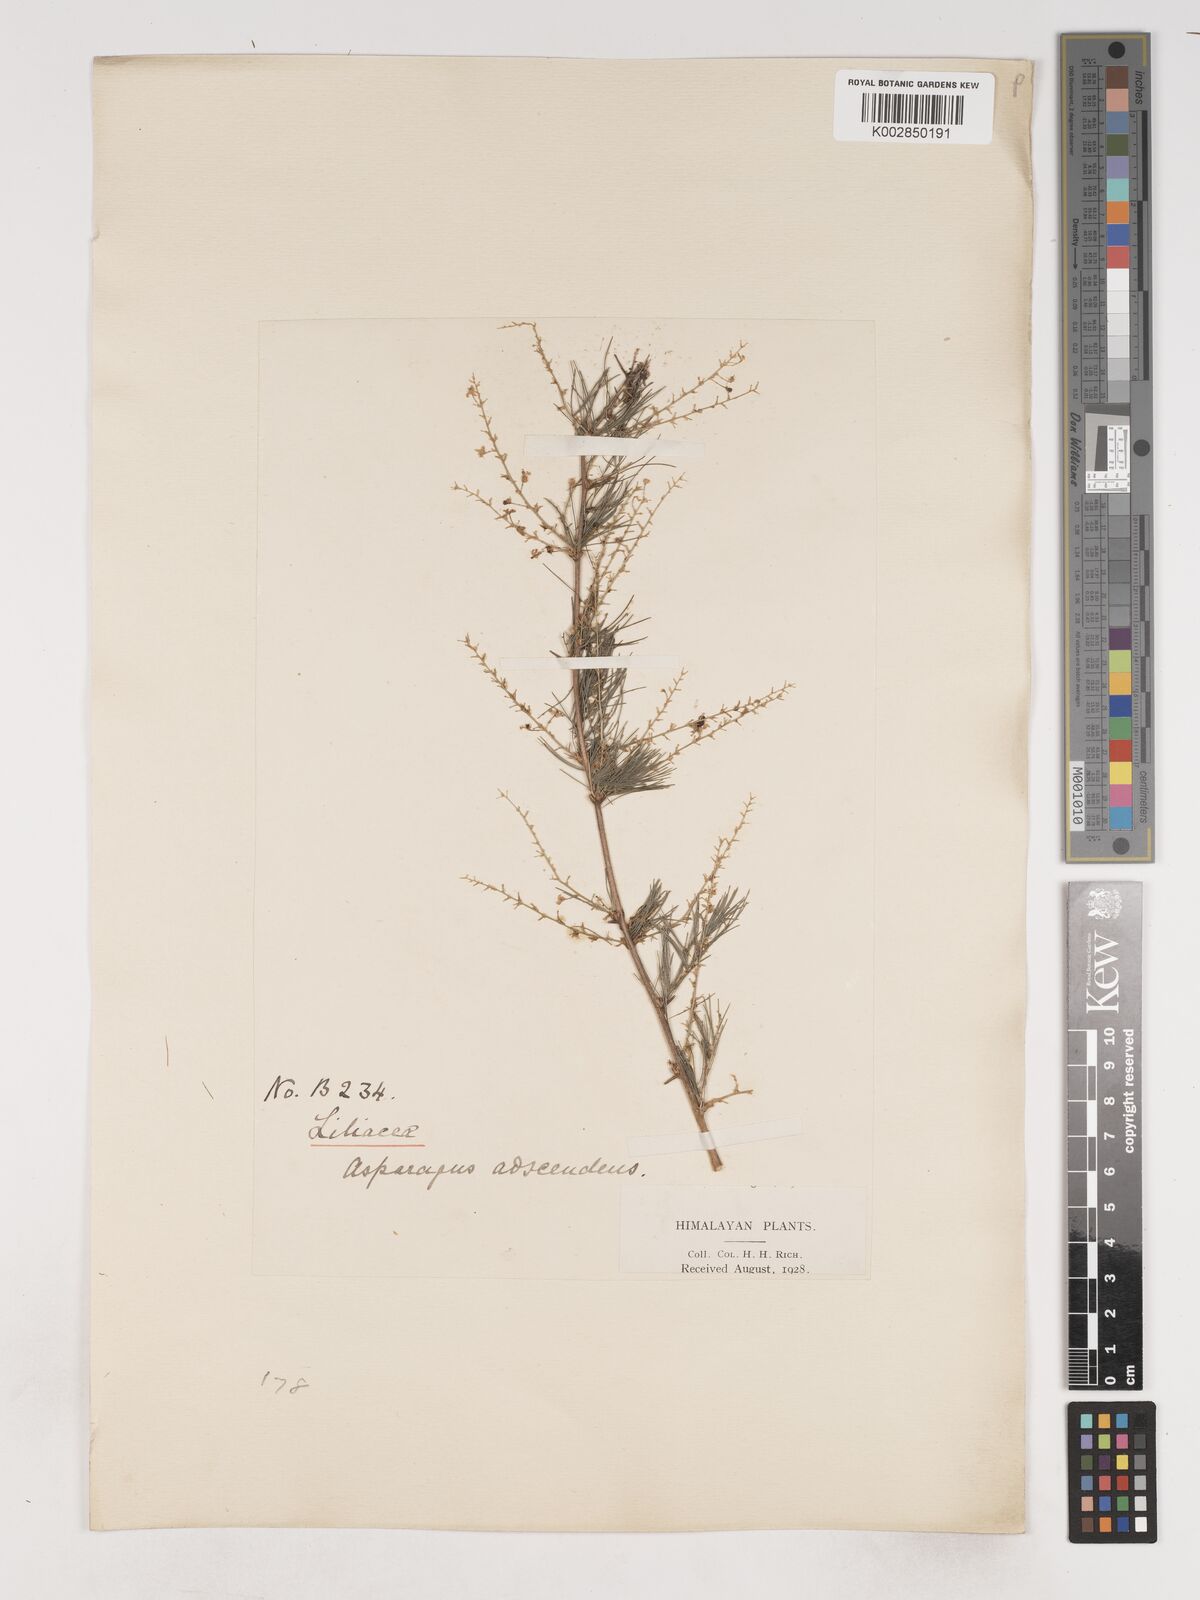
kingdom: Plantae
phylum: Tracheophyta
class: Liliopsida
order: Asparagales
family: Asparagaceae
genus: Asparagus
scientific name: Asparagus adscendens
